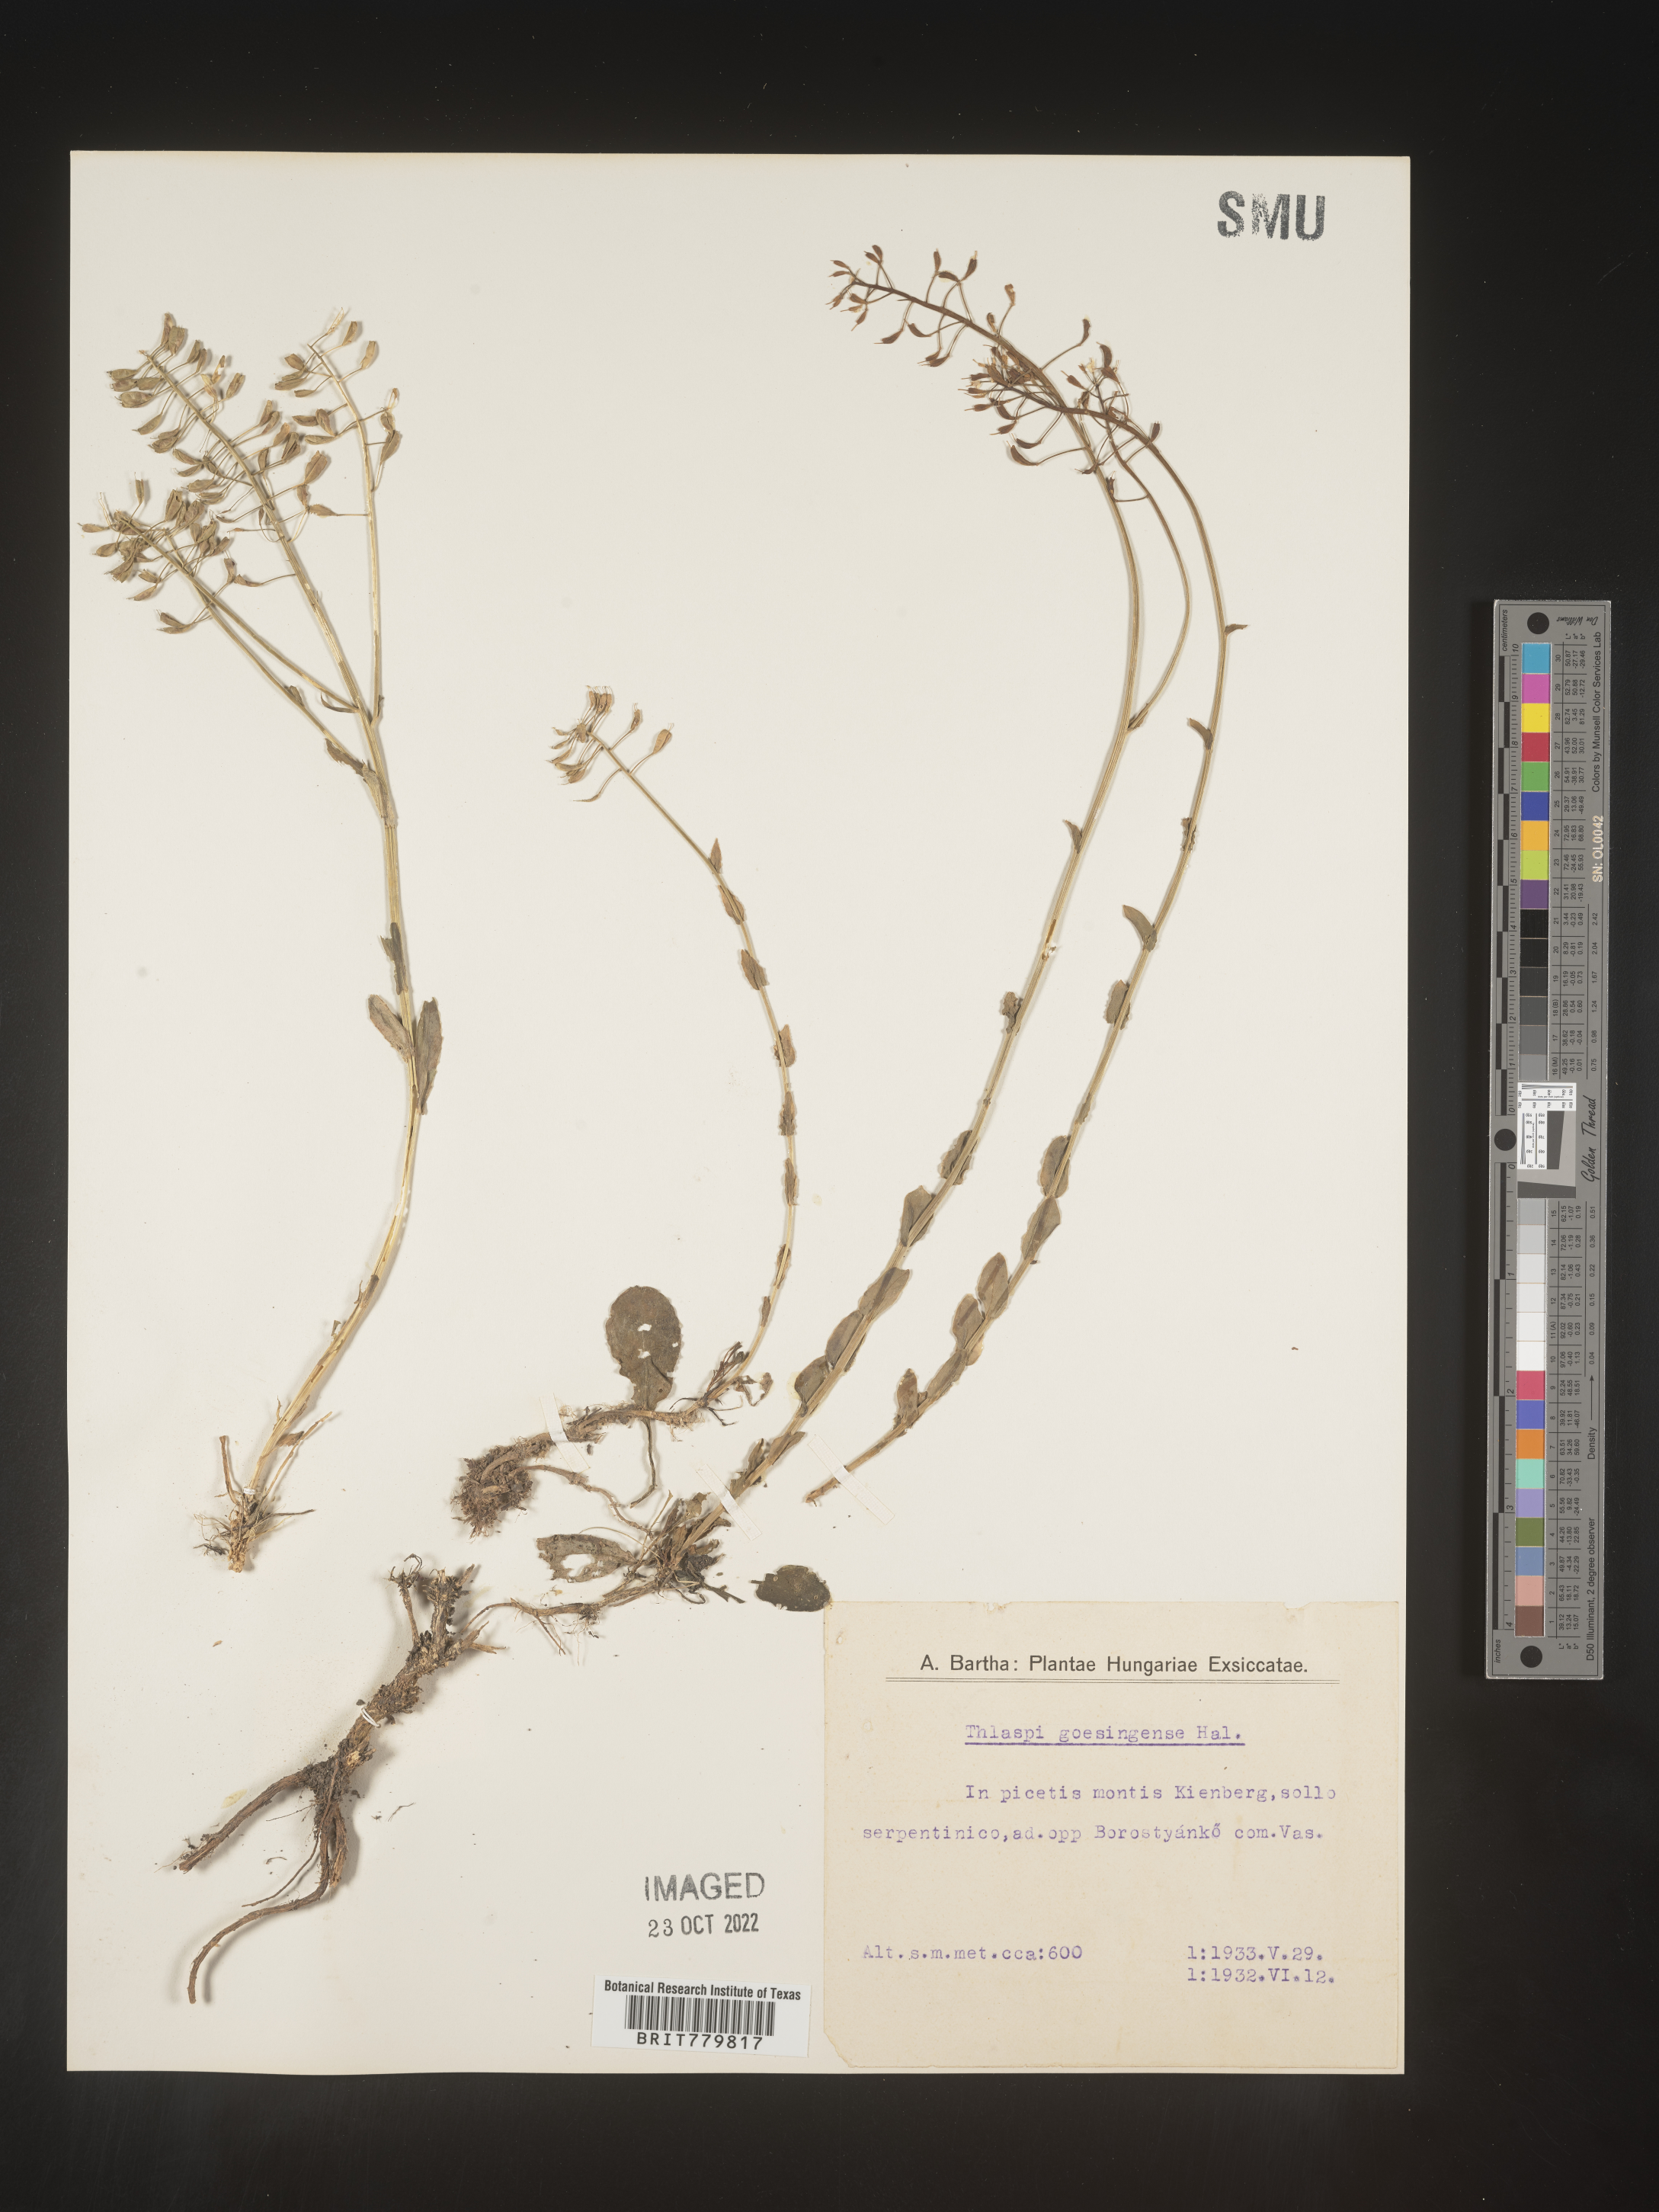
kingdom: Plantae
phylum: Tracheophyta
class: Magnoliopsida
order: Brassicales
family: Brassicaceae
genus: Thlaspi
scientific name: Thlaspi
